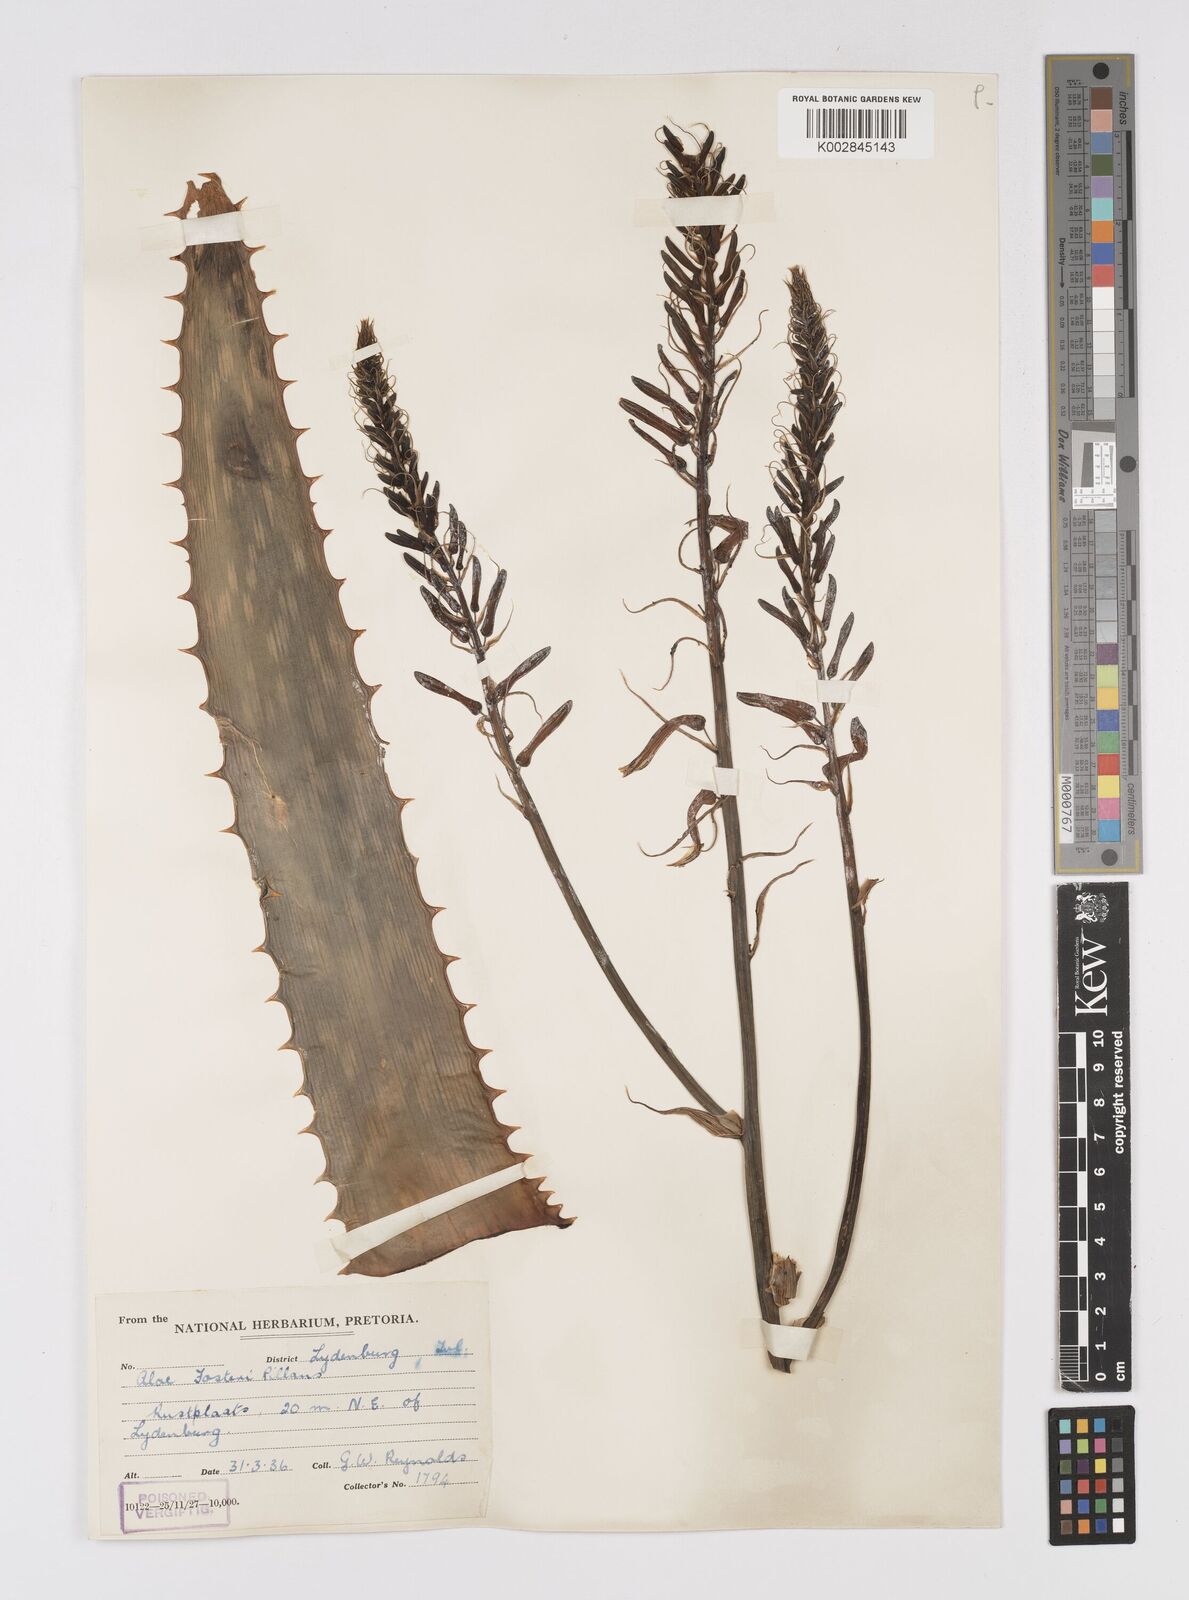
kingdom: Plantae
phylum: Tracheophyta
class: Liliopsida
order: Asparagales
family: Asphodelaceae
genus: Aloe
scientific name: Aloe fosteri
